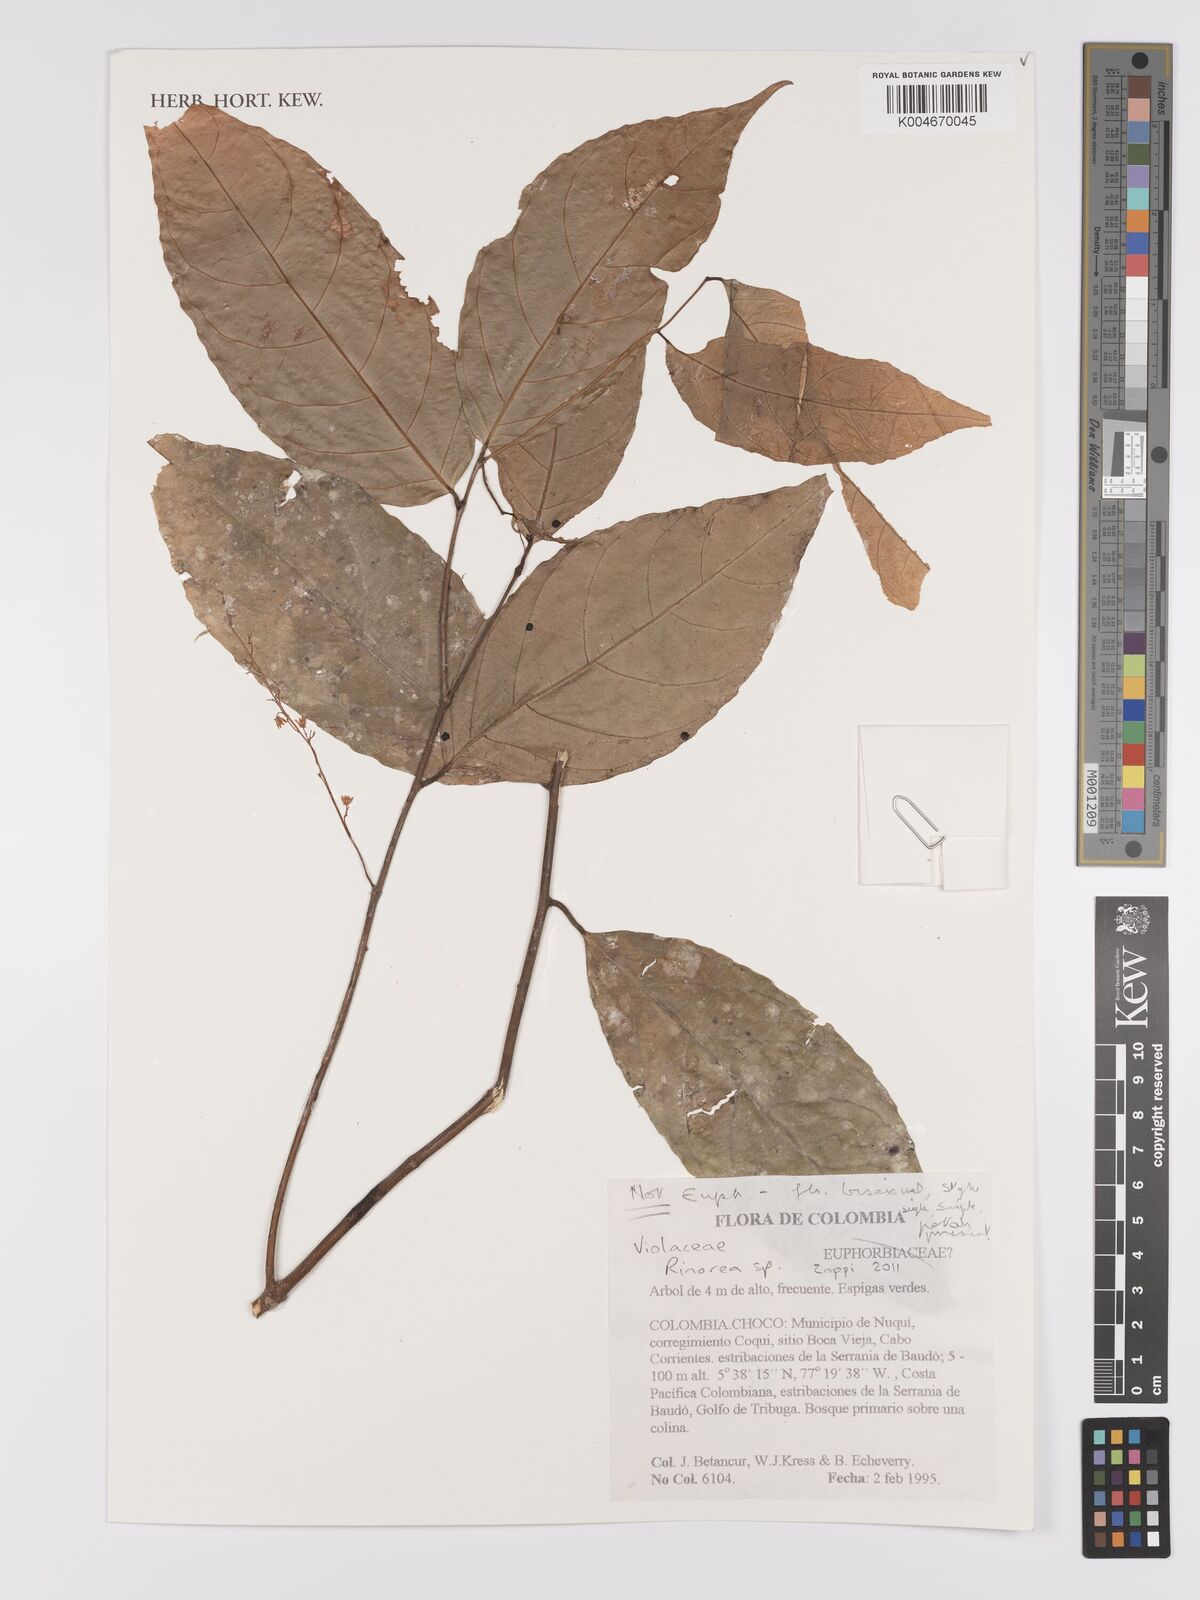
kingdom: Plantae
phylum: Tracheophyta
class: Magnoliopsida
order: Malpighiales
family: Violaceae
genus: Rinorea
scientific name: Rinorea
